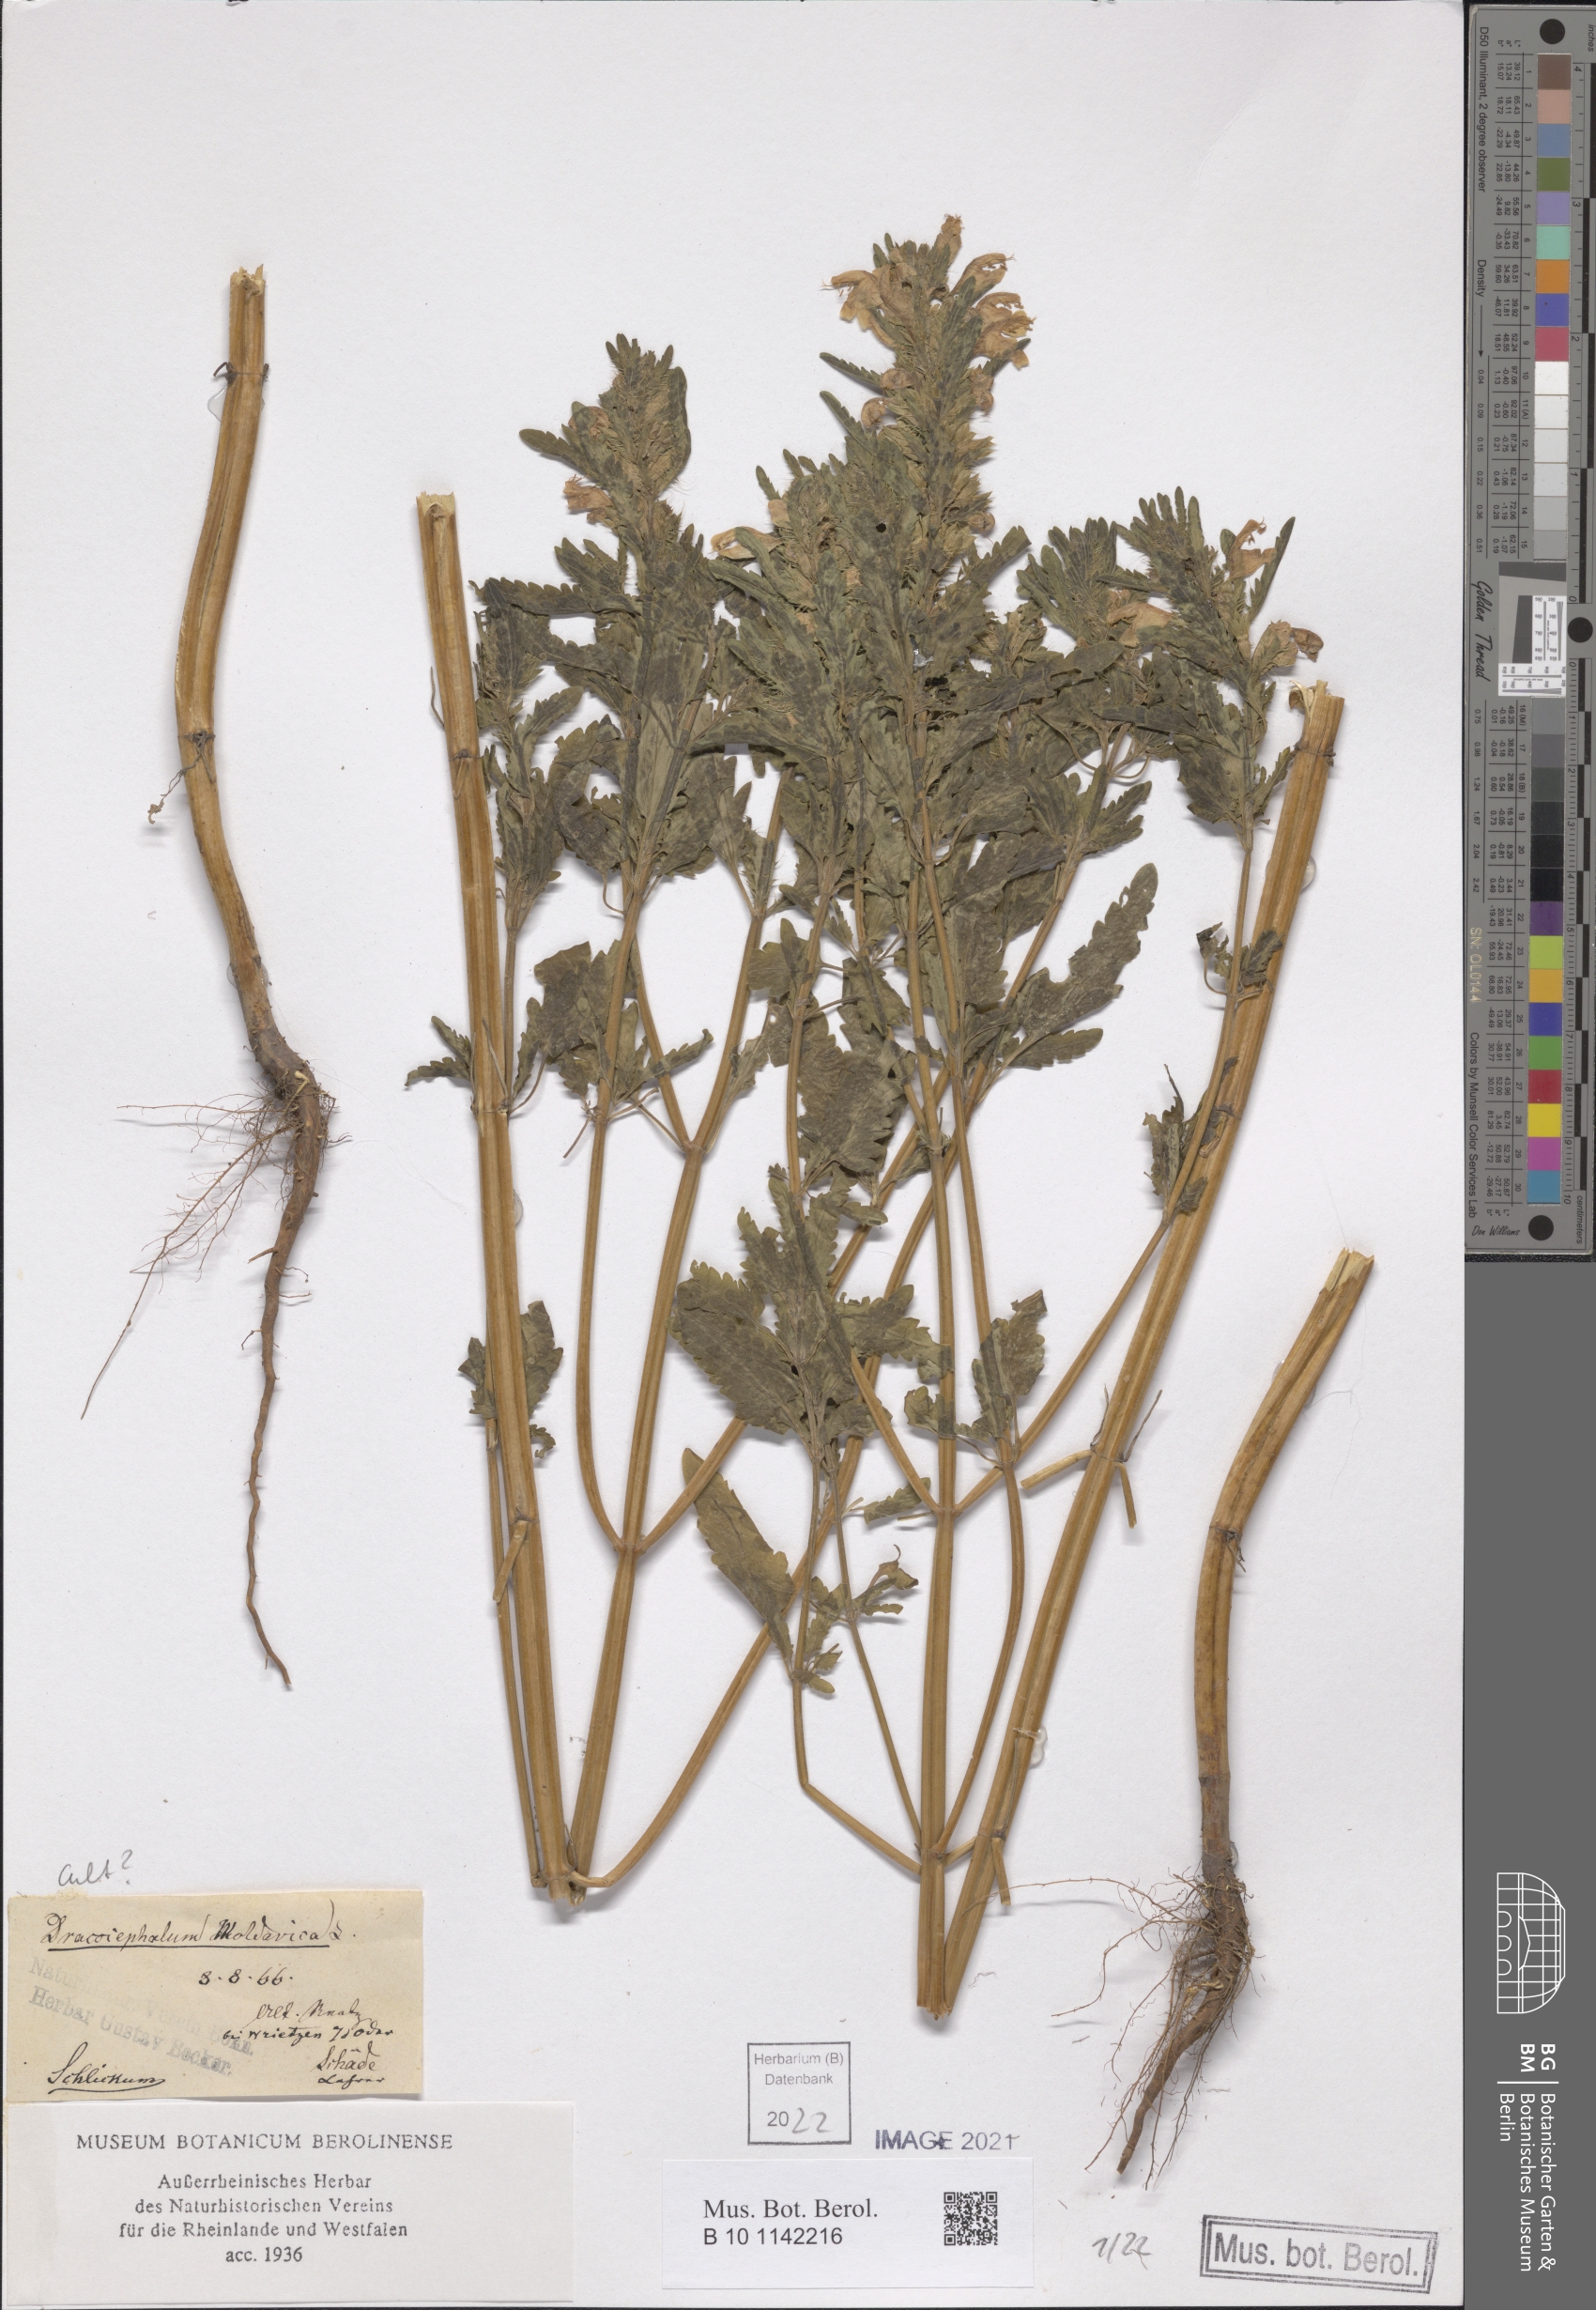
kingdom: Plantae
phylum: Tracheophyta
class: Magnoliopsida
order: Lamiales
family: Lamiaceae
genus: Dracocephalum
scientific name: Dracocephalum moldavica
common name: Moldavian dragonhead
